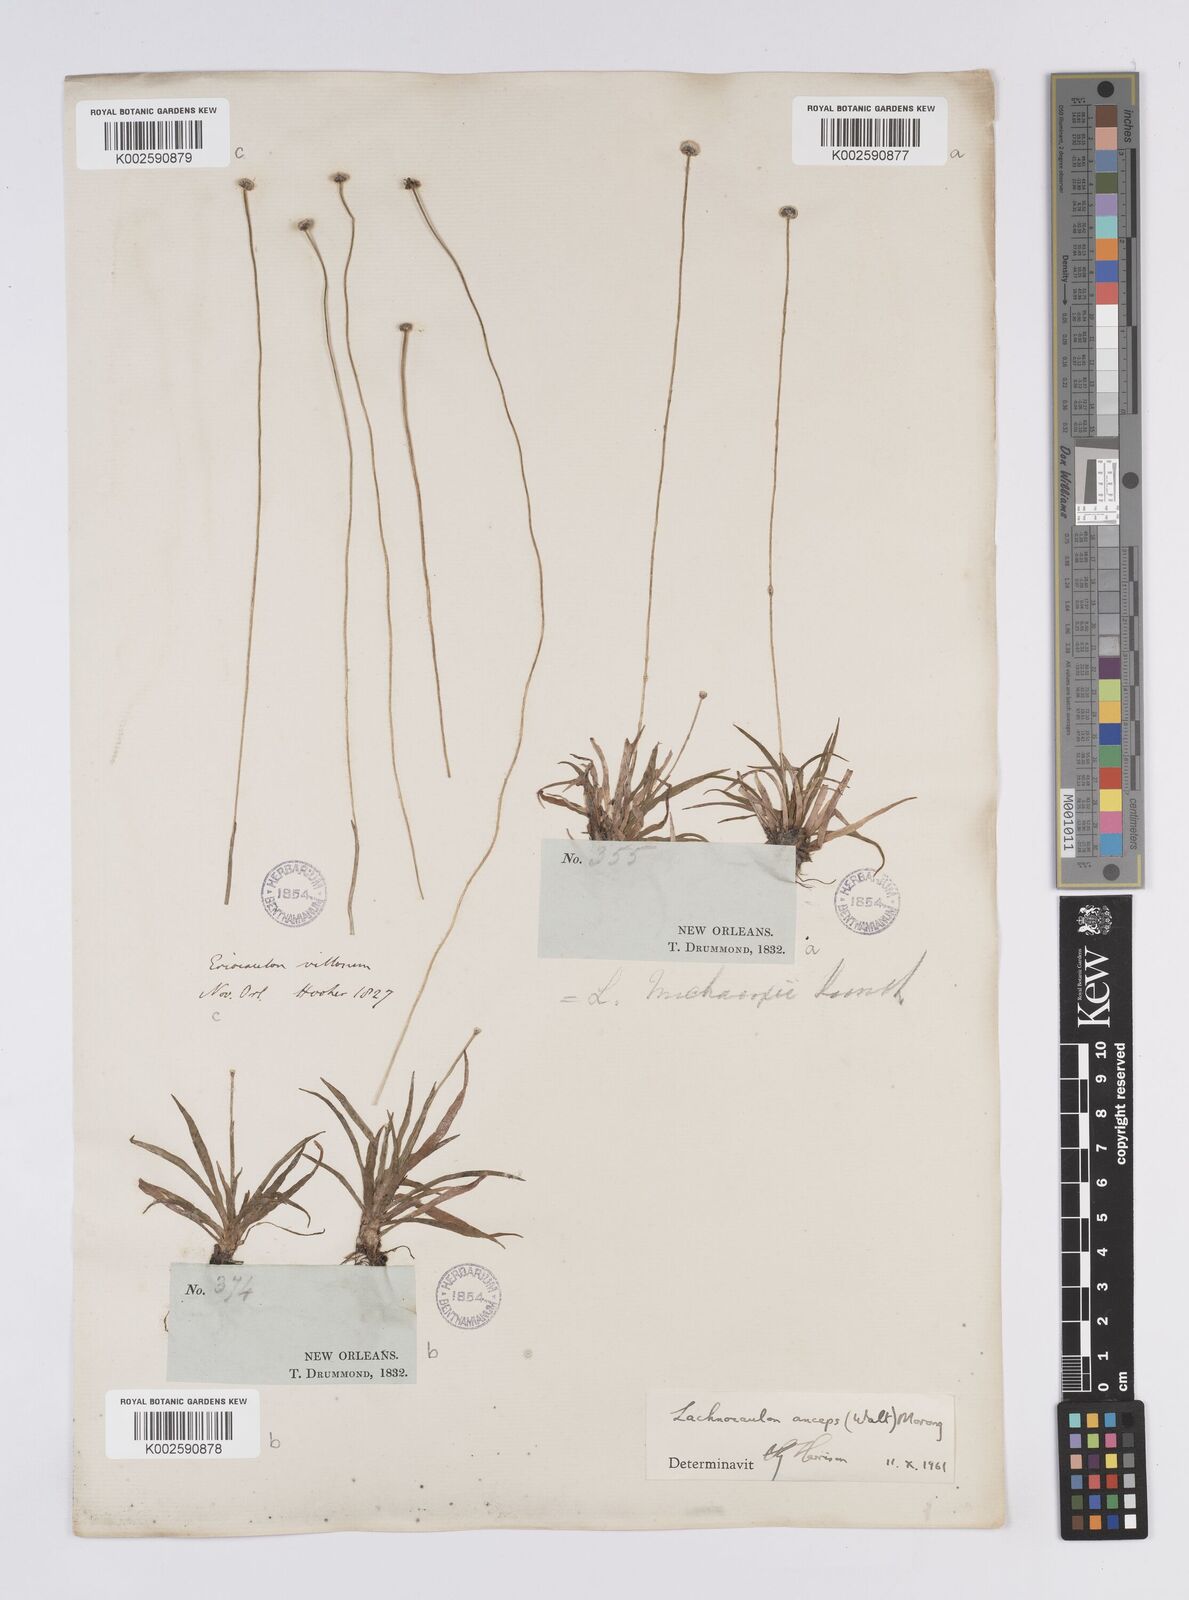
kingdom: Plantae
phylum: Tracheophyta
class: Liliopsida
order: Poales
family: Eriocaulaceae
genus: Paepalanthus
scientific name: Paepalanthus anceps
